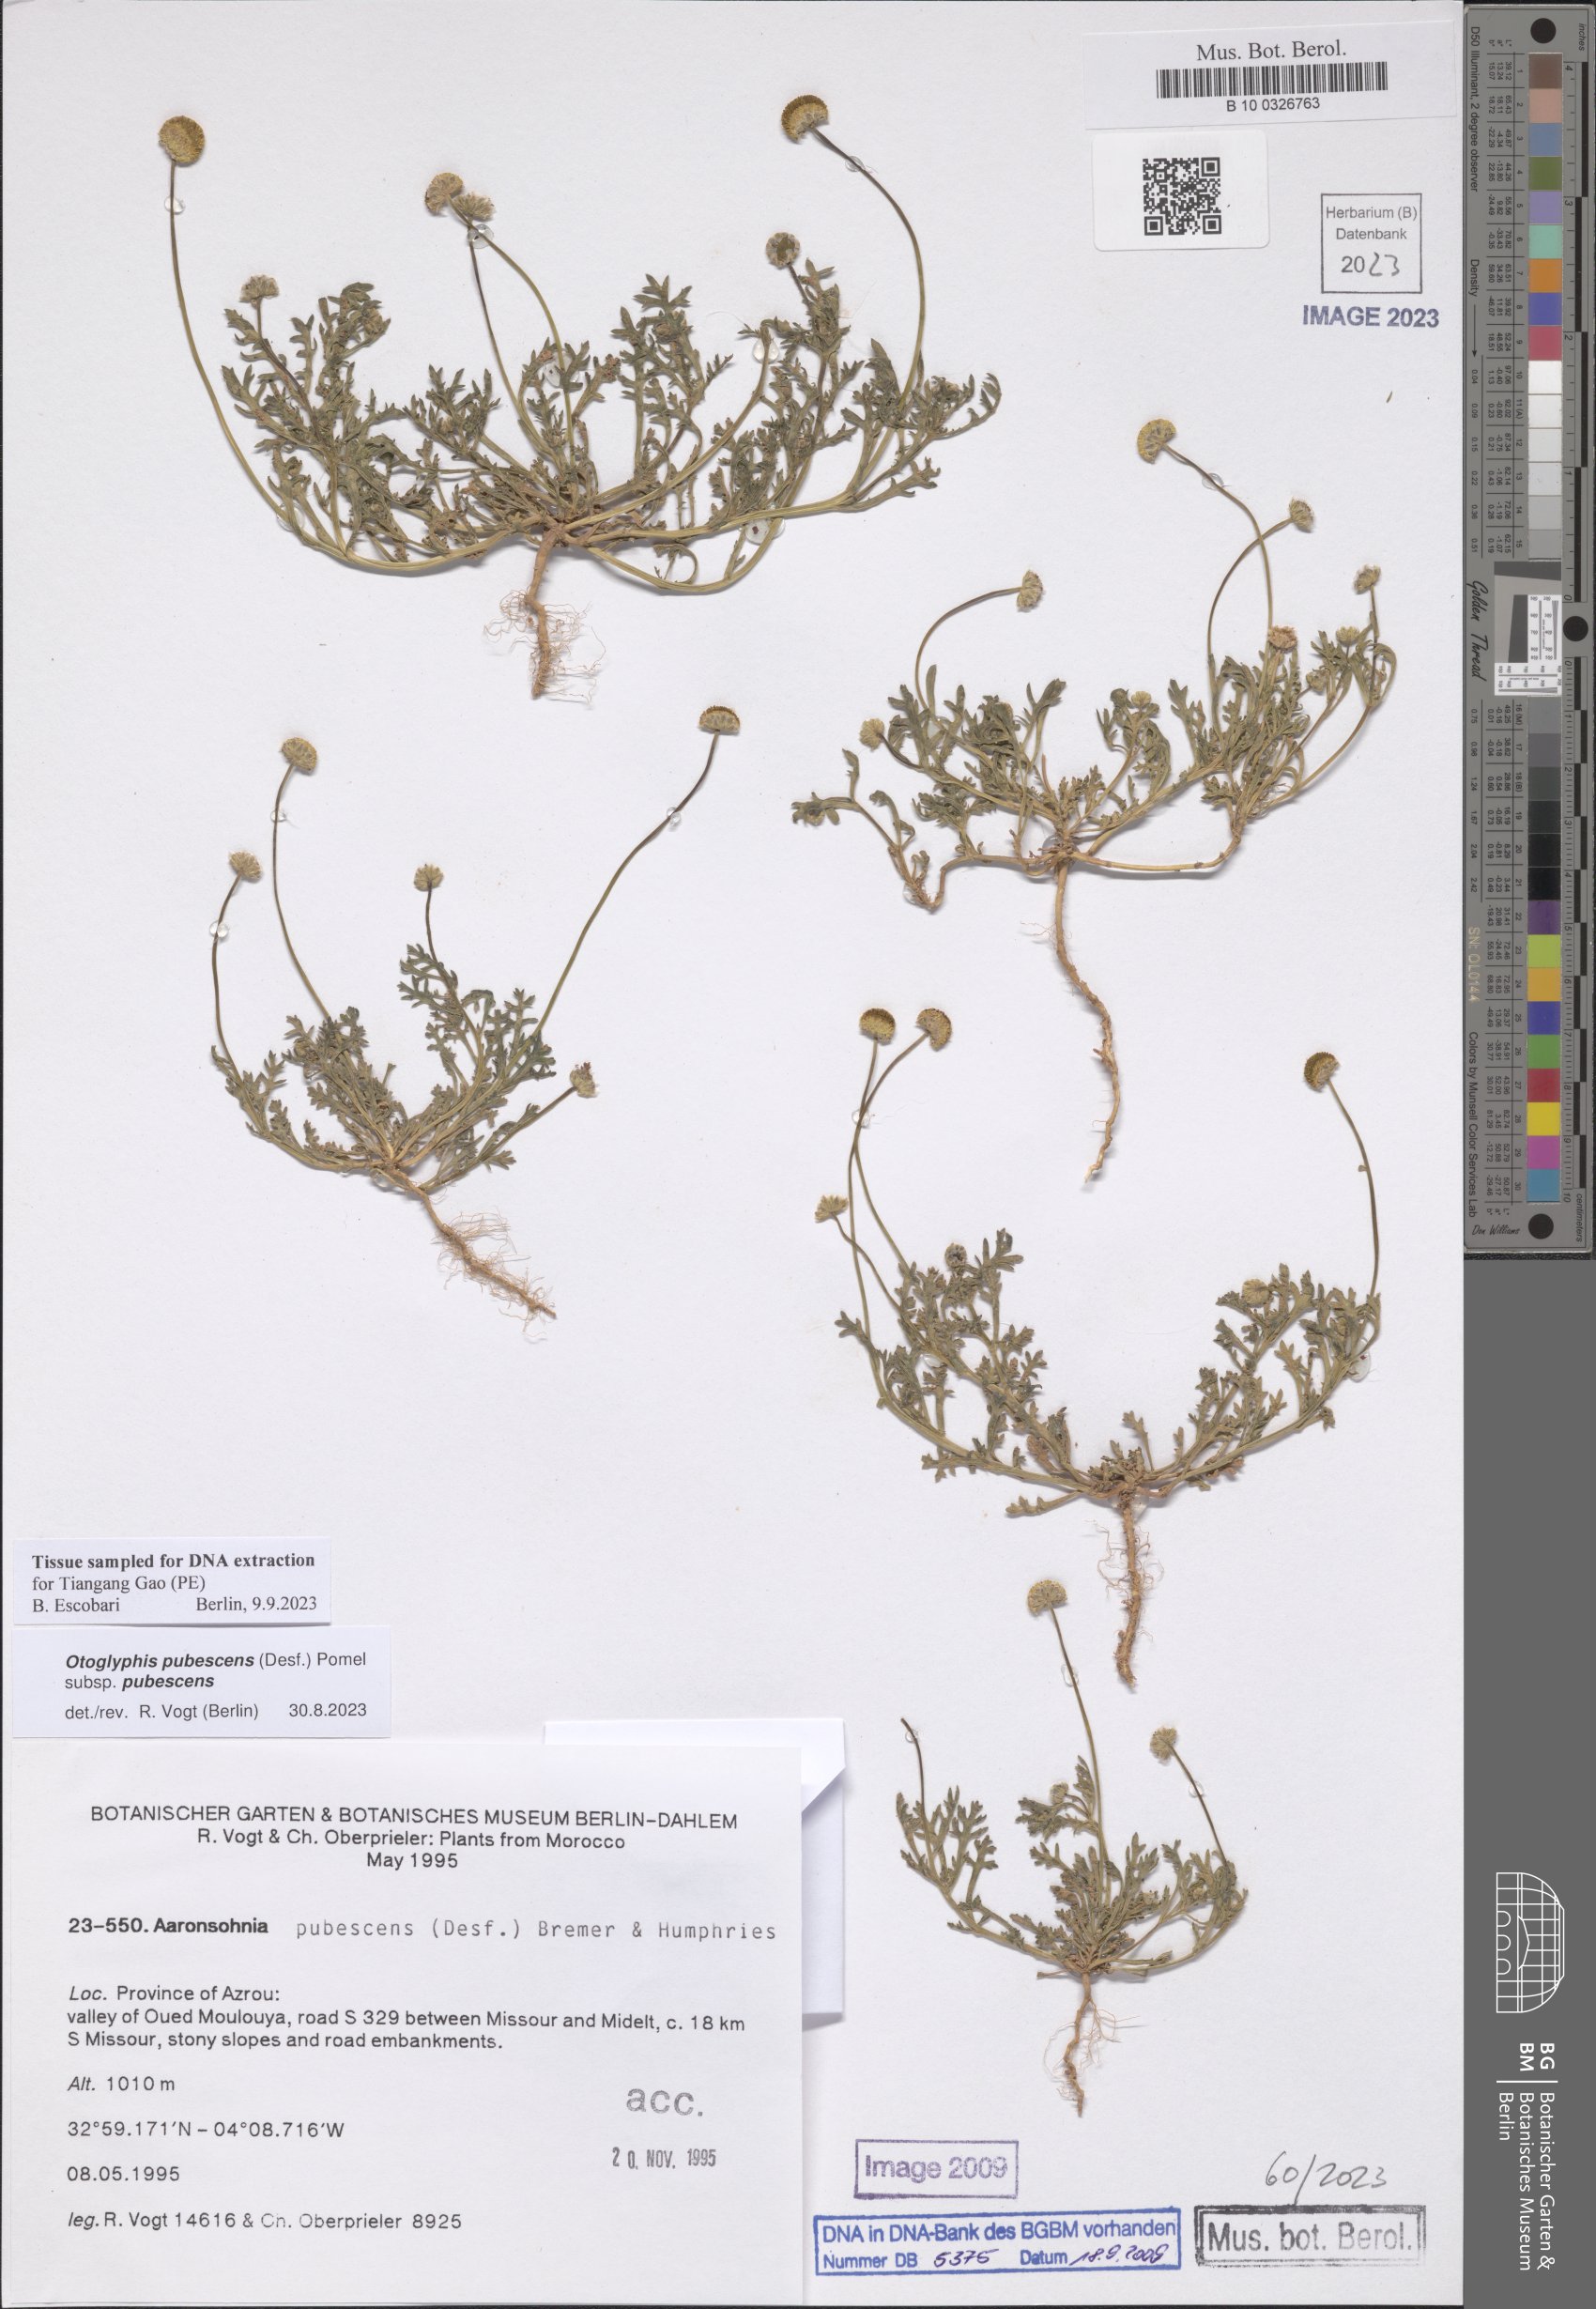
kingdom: Plantae
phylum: Tracheophyta
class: Magnoliopsida
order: Asterales
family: Asteraceae
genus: Otoglyphis
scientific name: Otoglyphis pubescens
